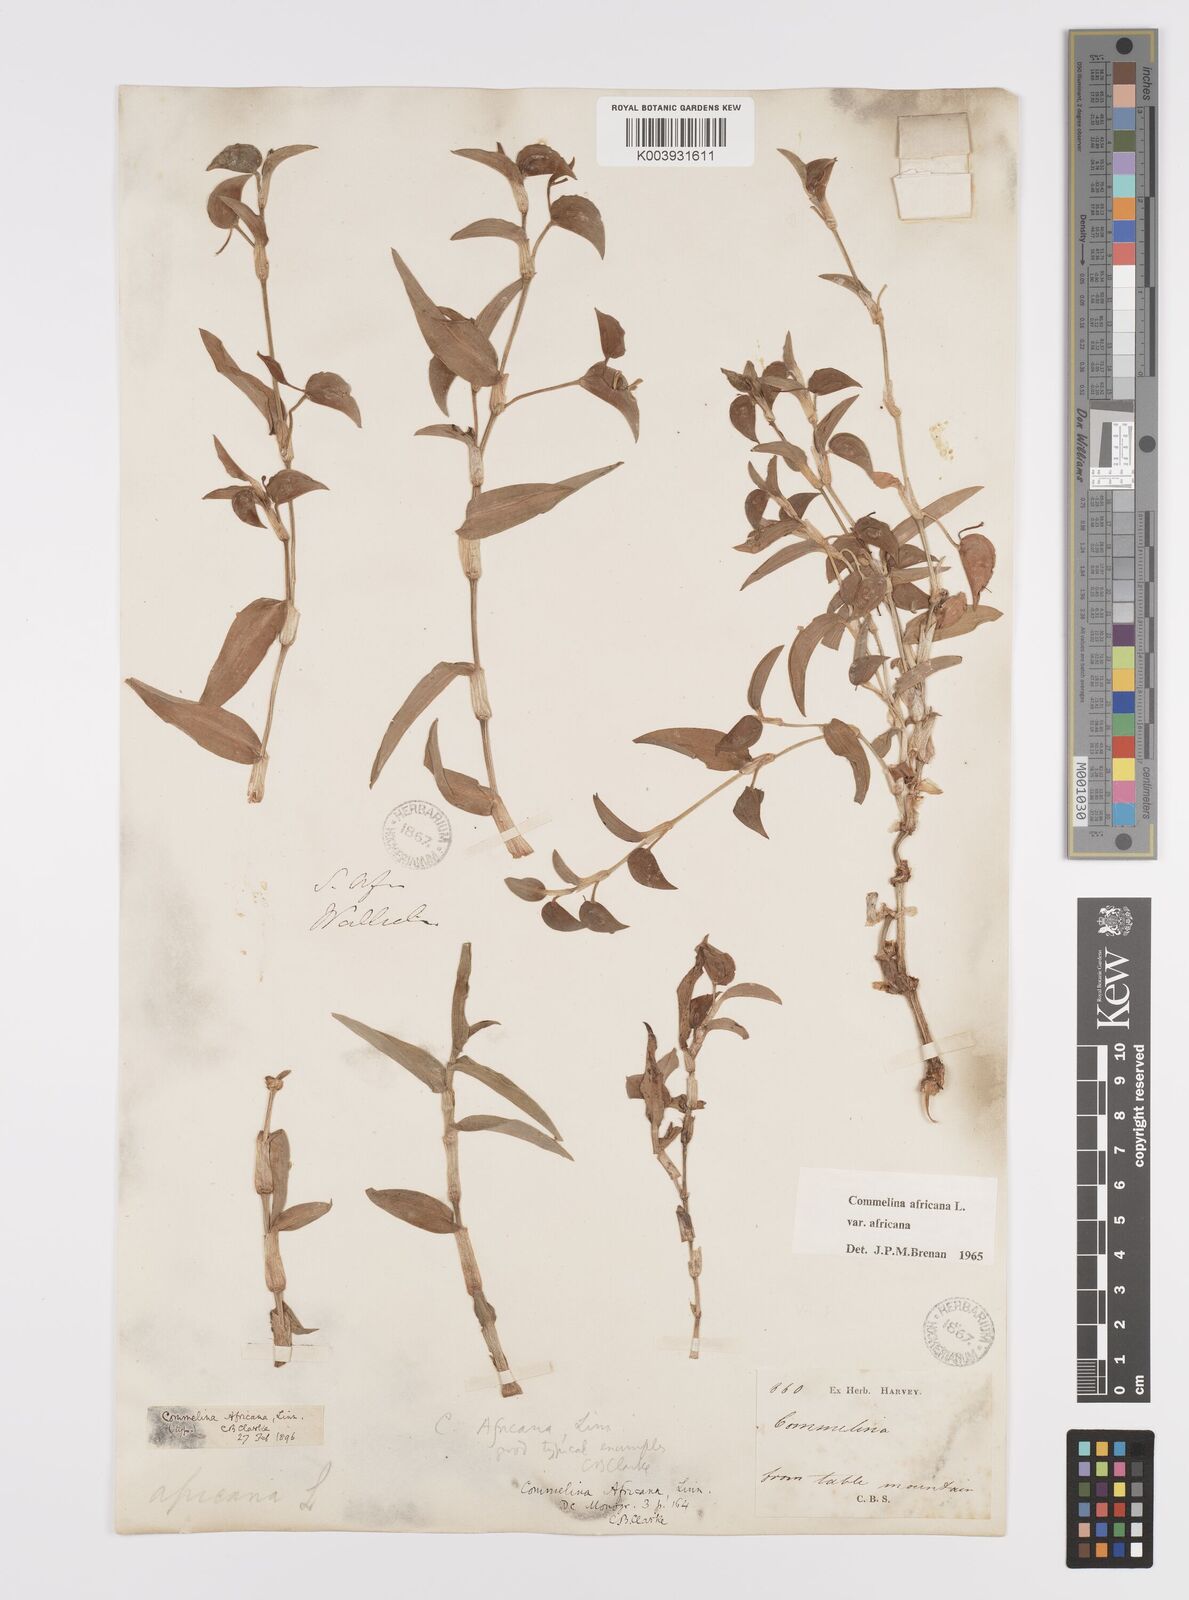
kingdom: Plantae
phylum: Tracheophyta
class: Liliopsida
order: Commelinales
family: Commelinaceae
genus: Commelina
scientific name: Commelina africana
